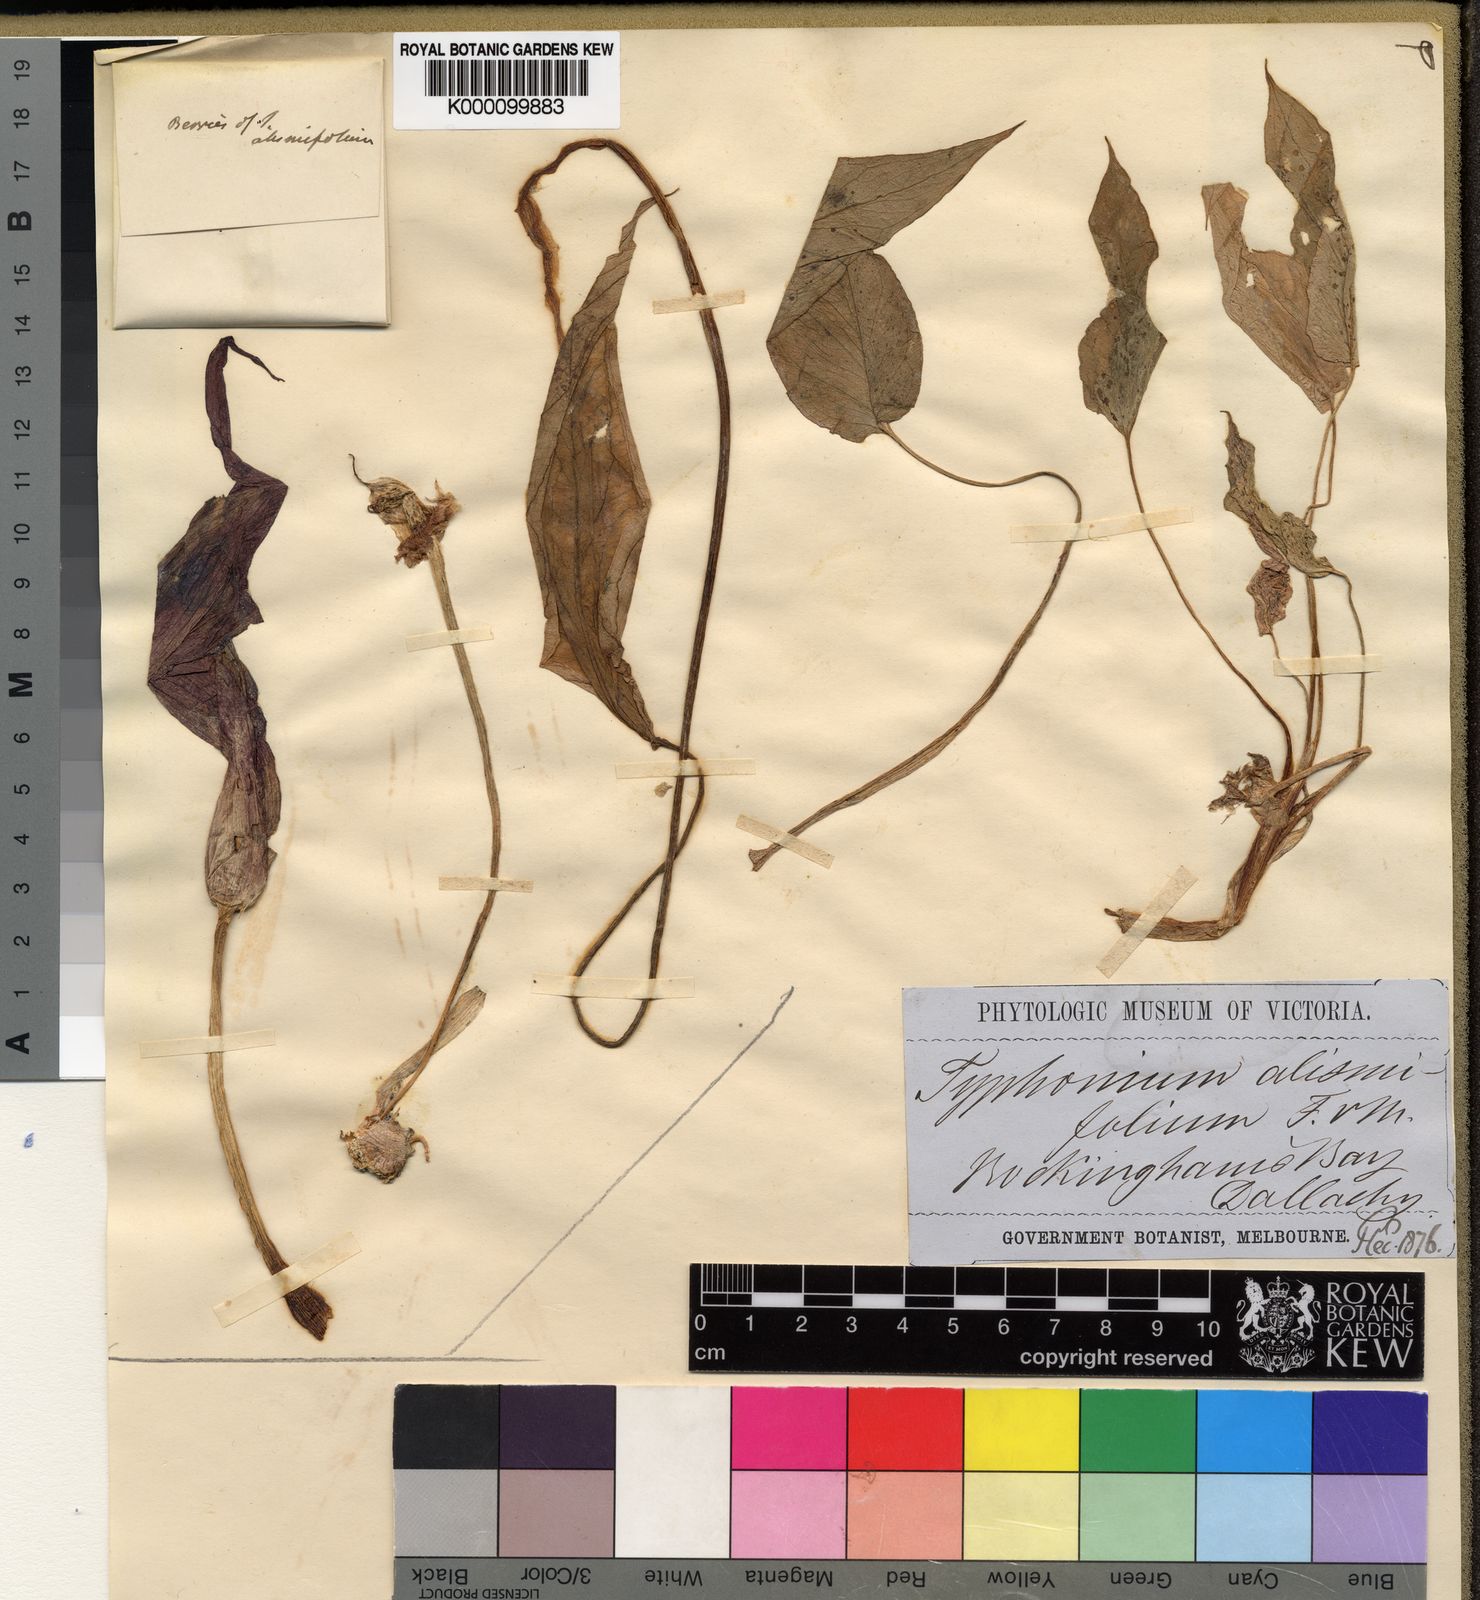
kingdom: Plantae
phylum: Tracheophyta
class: Liliopsida
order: Alismatales
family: Araceae
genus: Typhonium
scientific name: Typhonium alismifolium
